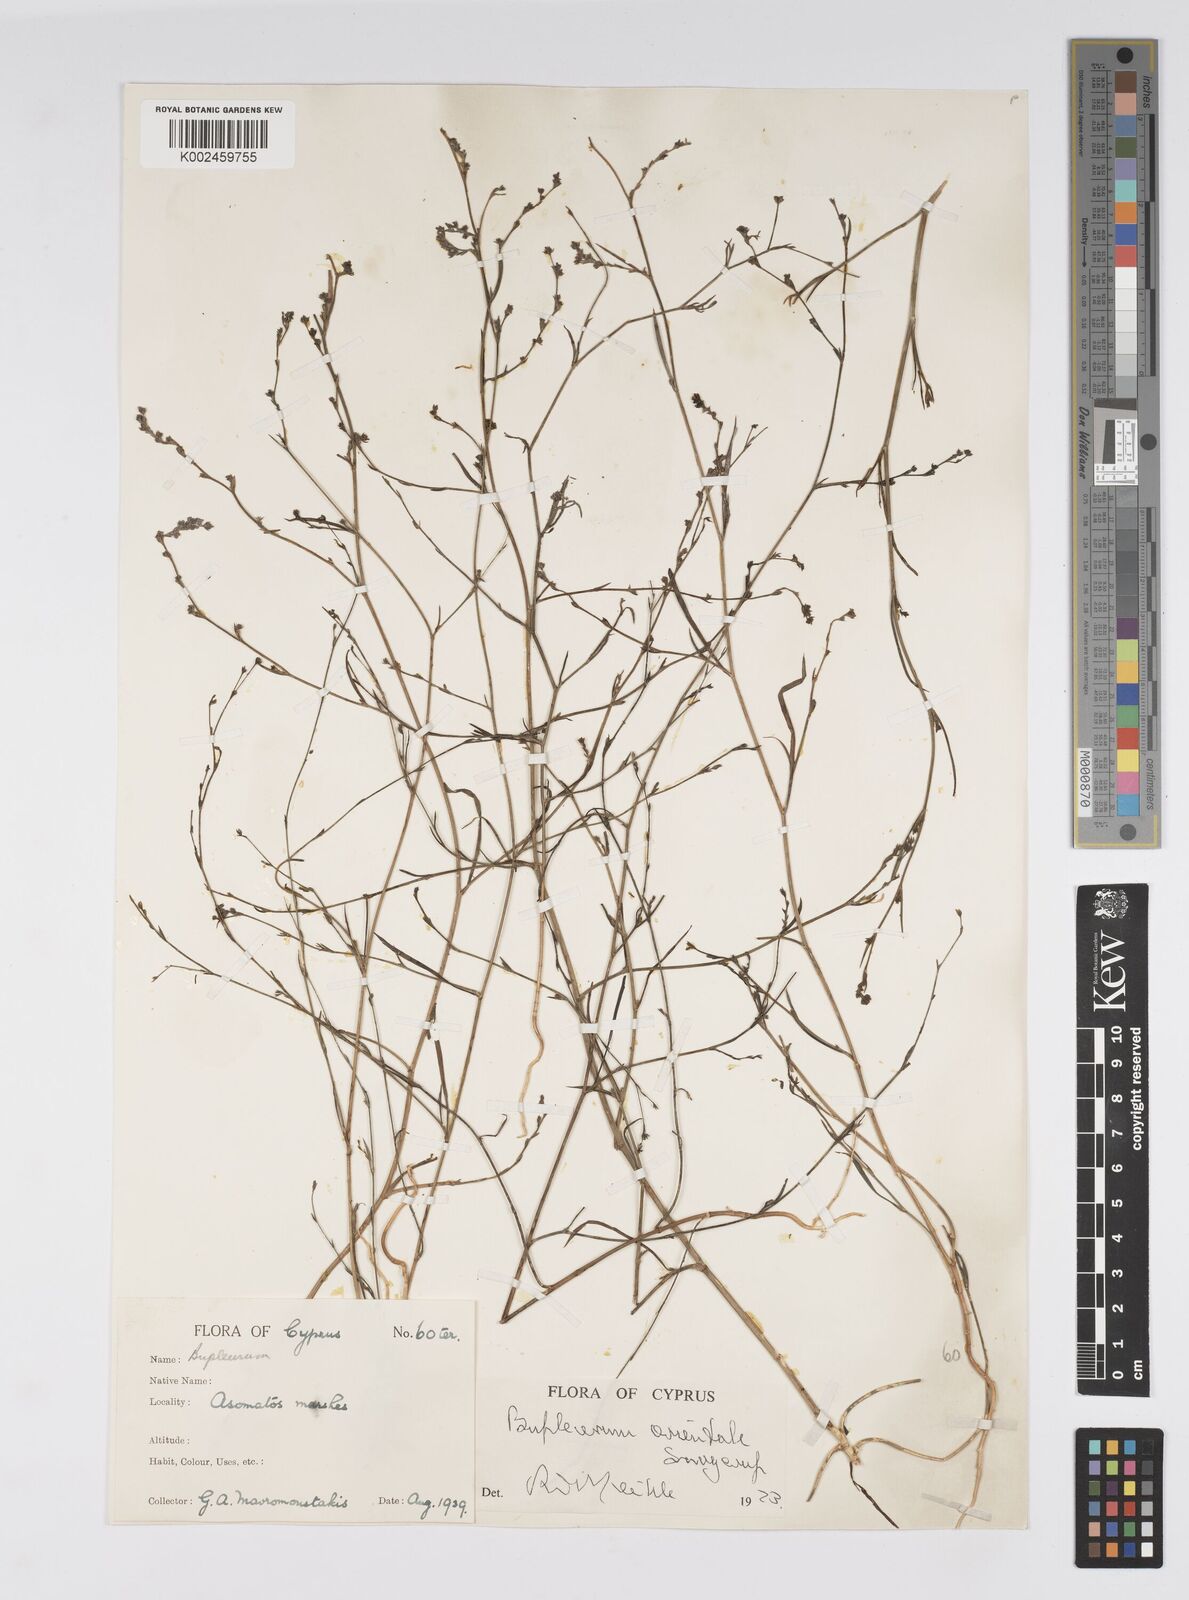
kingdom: Plantae
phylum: Tracheophyta
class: Magnoliopsida
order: Apiales
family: Apiaceae
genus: Bupleurum
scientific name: Bupleurum orientale
